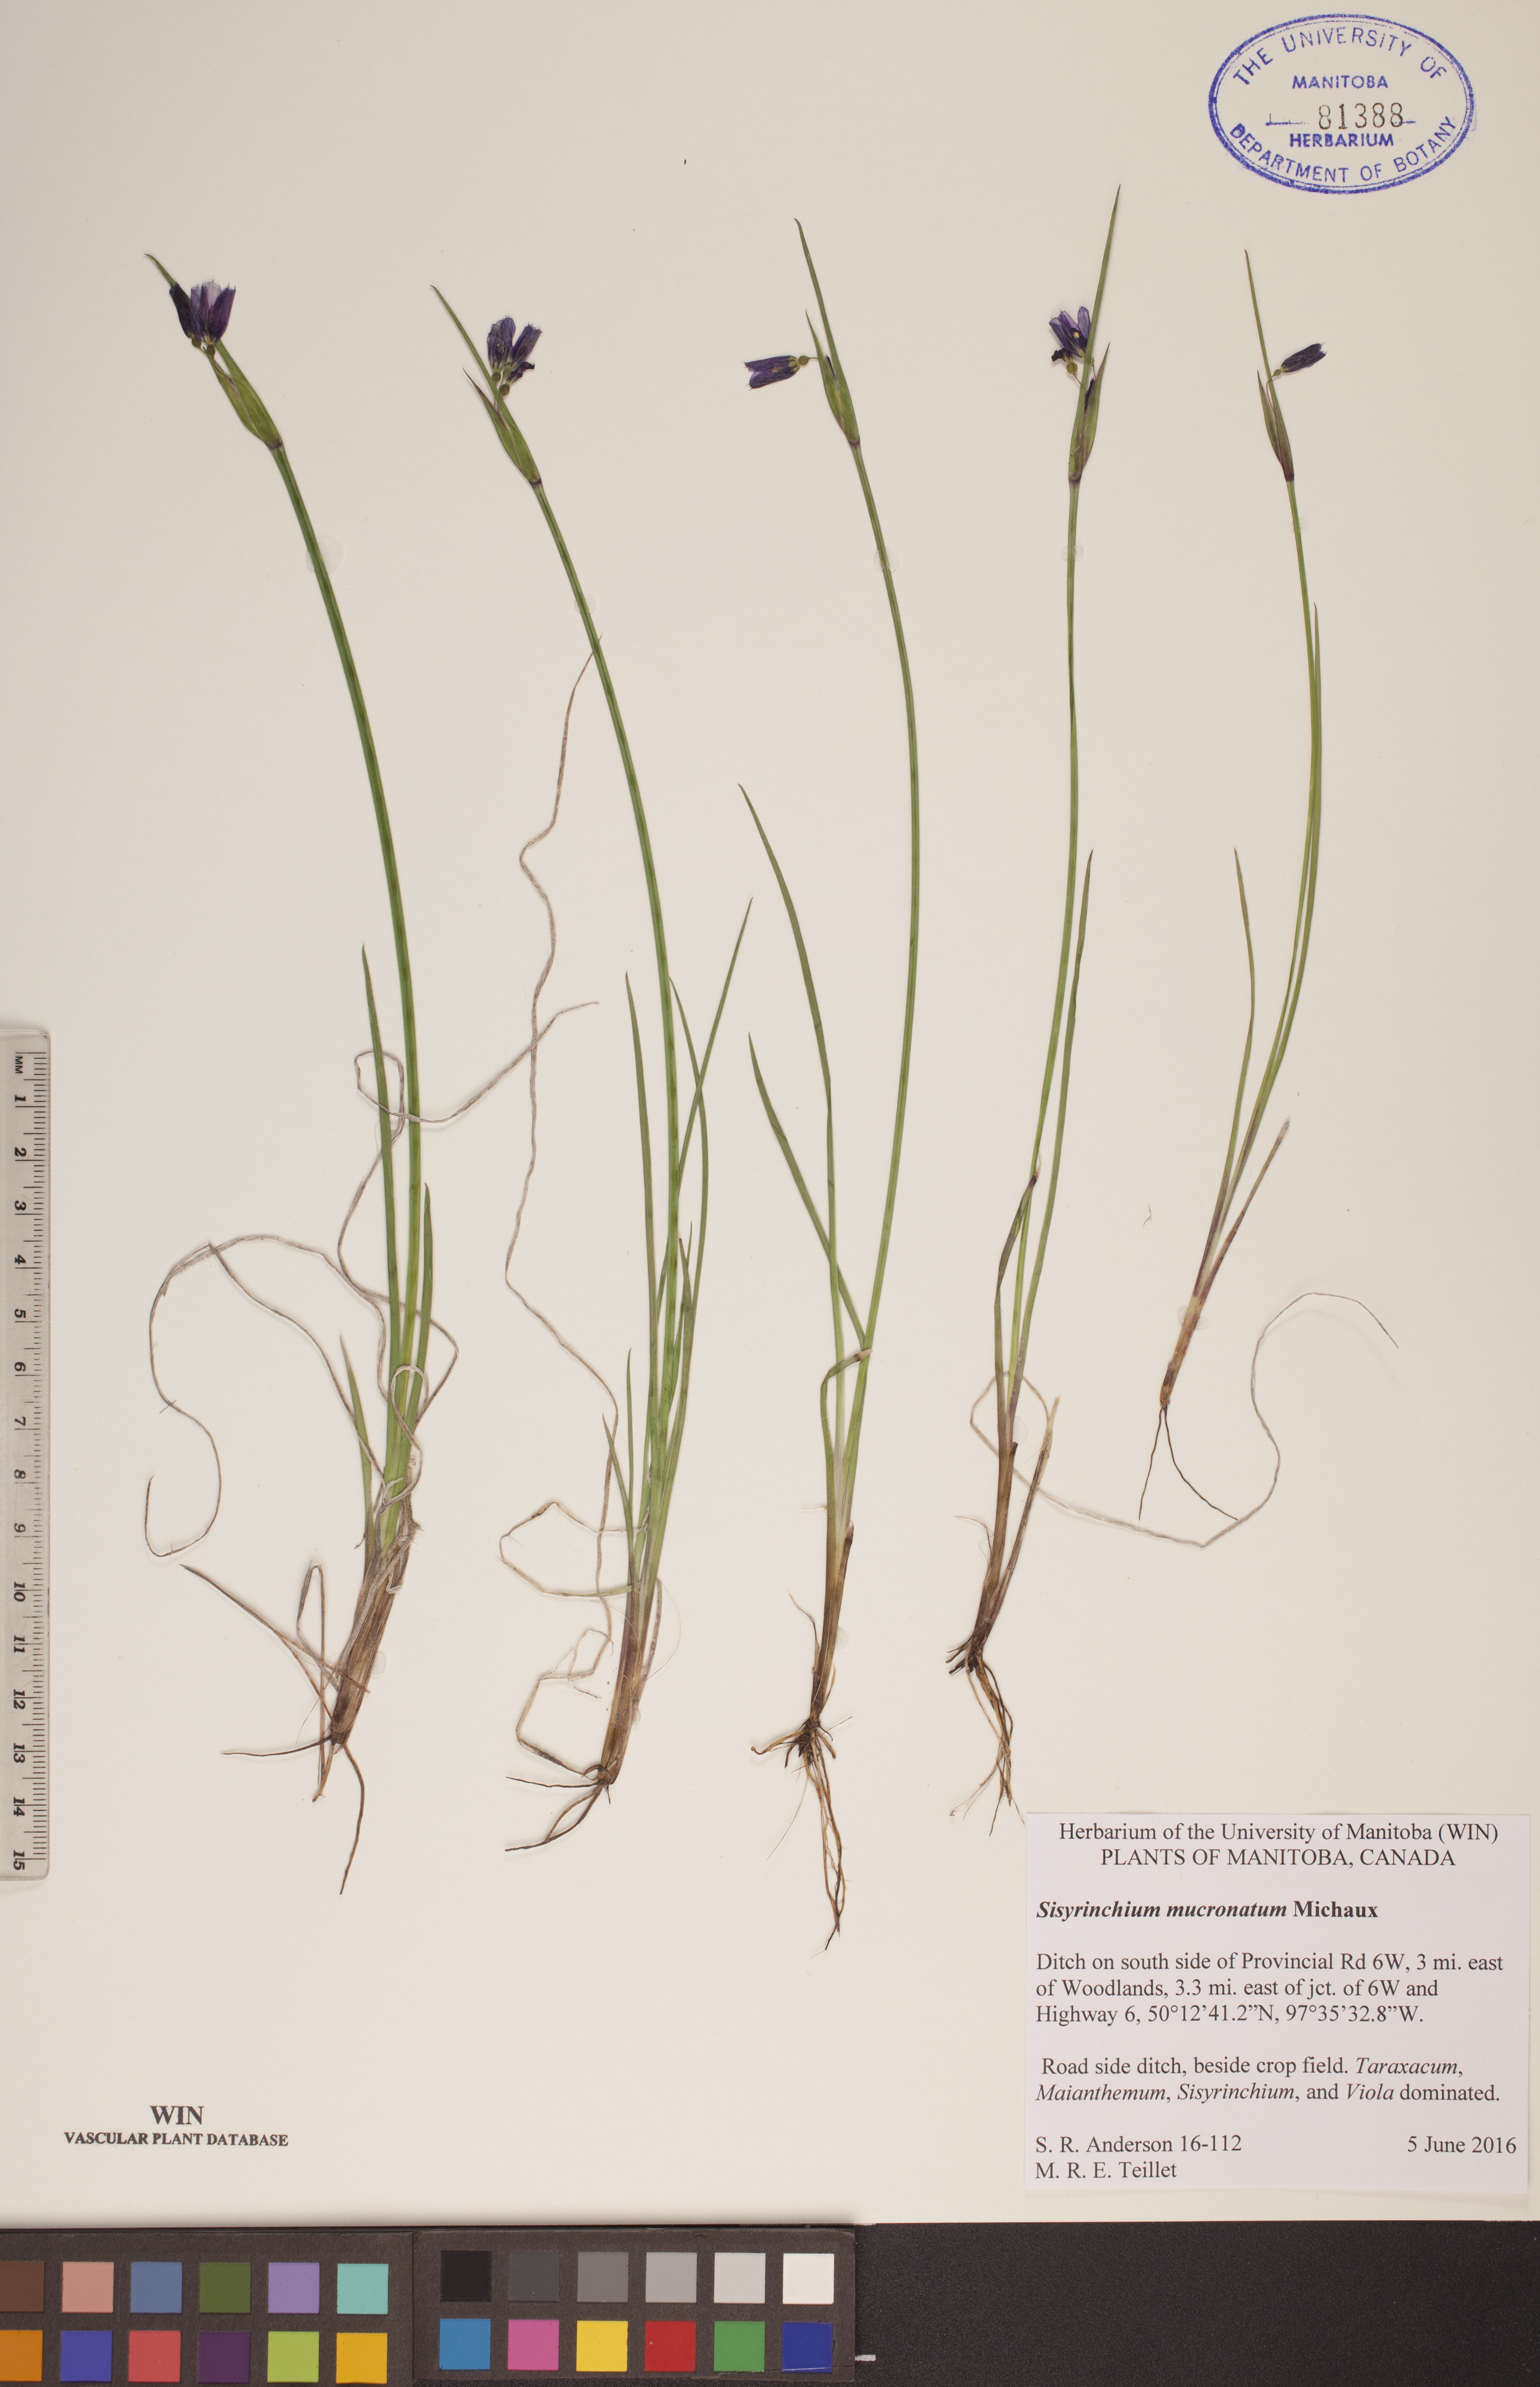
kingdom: Plantae
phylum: Tracheophyta
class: Liliopsida
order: Asparagales
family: Iridaceae
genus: Sisyrinchium
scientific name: Sisyrinchium mucronatum
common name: Eastern blue-eyed-grass
